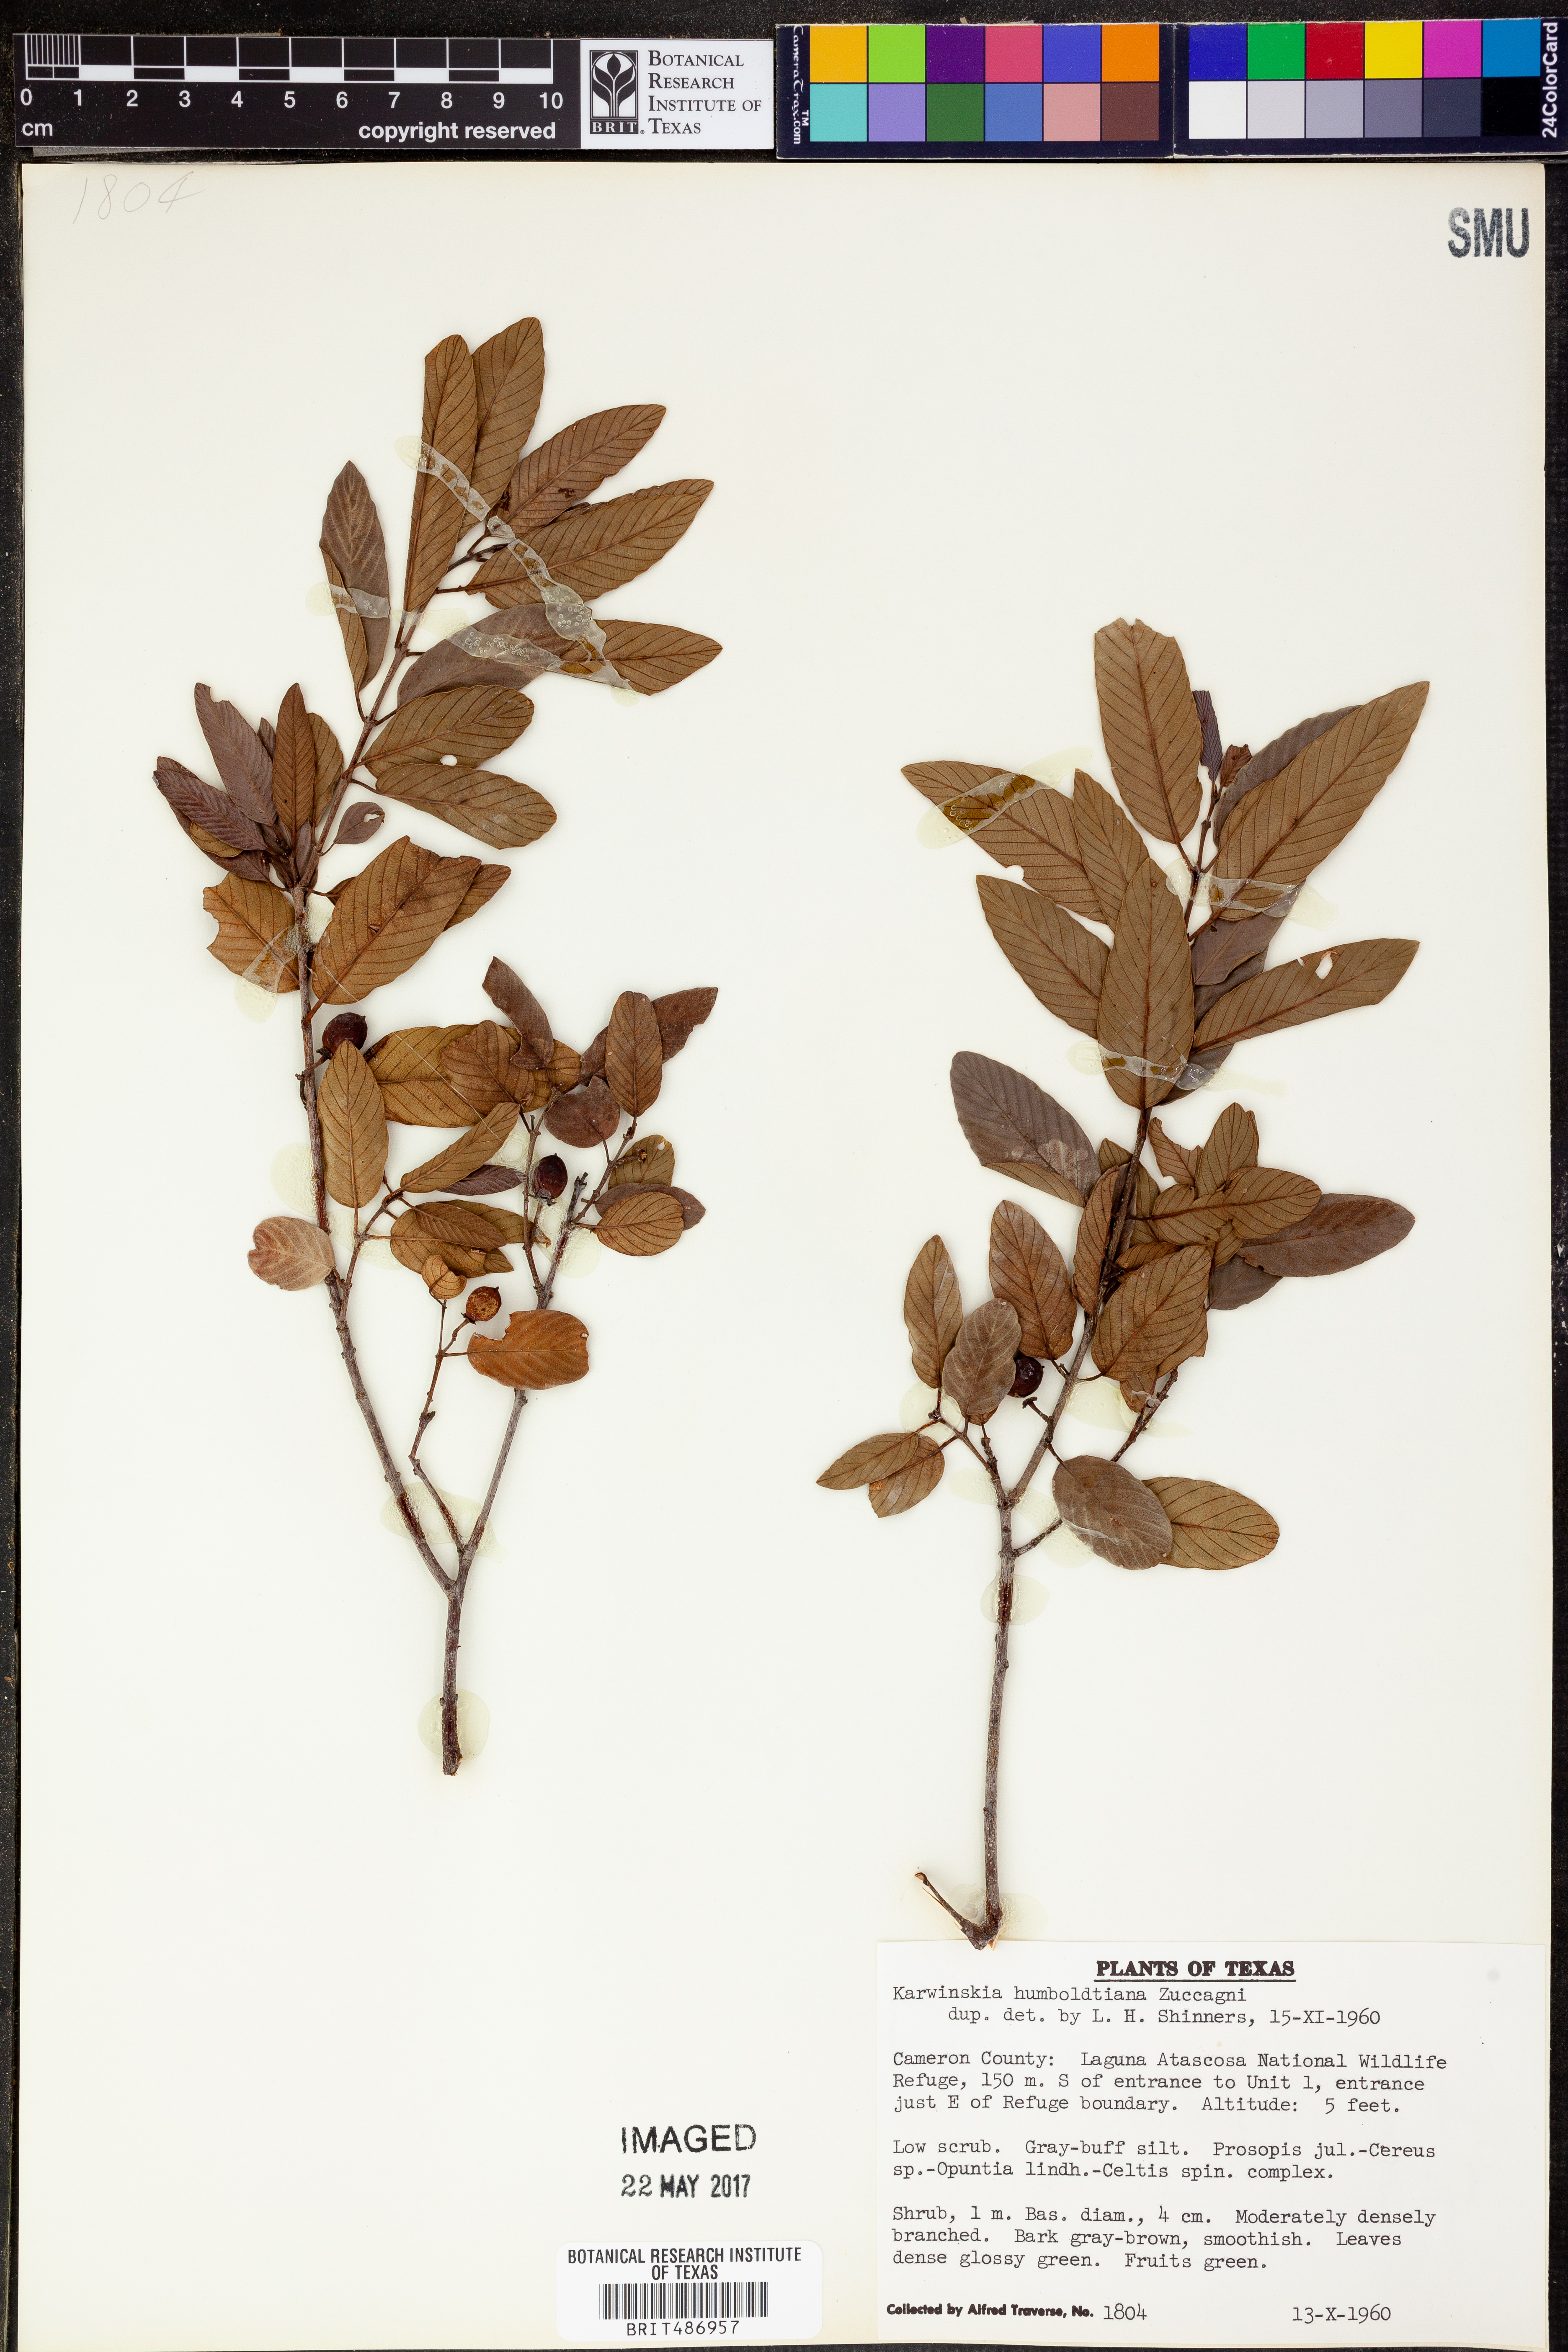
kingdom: Plantae
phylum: Tracheophyta
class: Magnoliopsida
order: Rosales
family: Rhamnaceae
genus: Karwinskia
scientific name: Karwinskia humboldtiana
